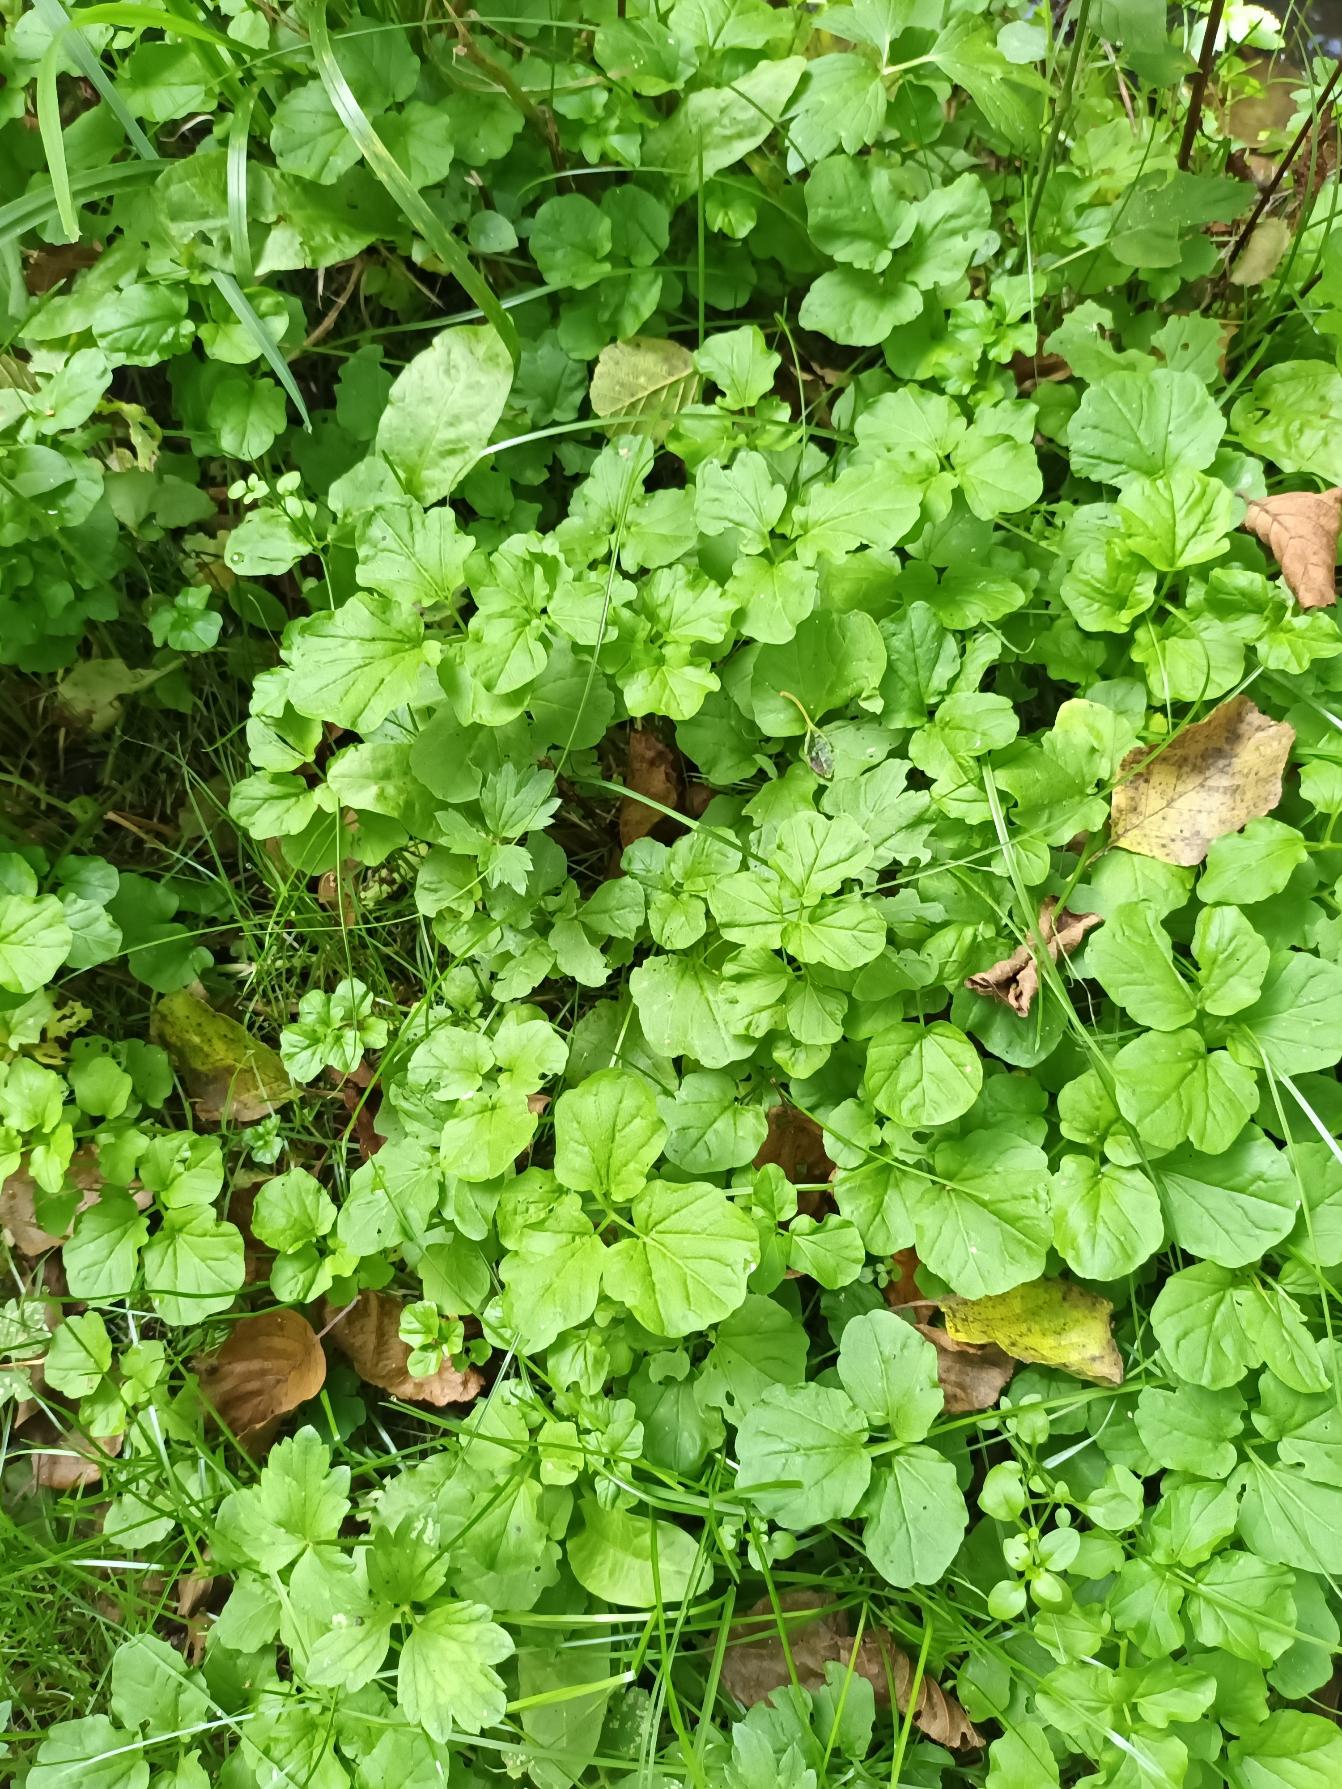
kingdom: Plantae
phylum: Tracheophyta
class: Magnoliopsida
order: Brassicales
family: Brassicaceae
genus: Cardamine
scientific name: Cardamine amara
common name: Vandkarse
